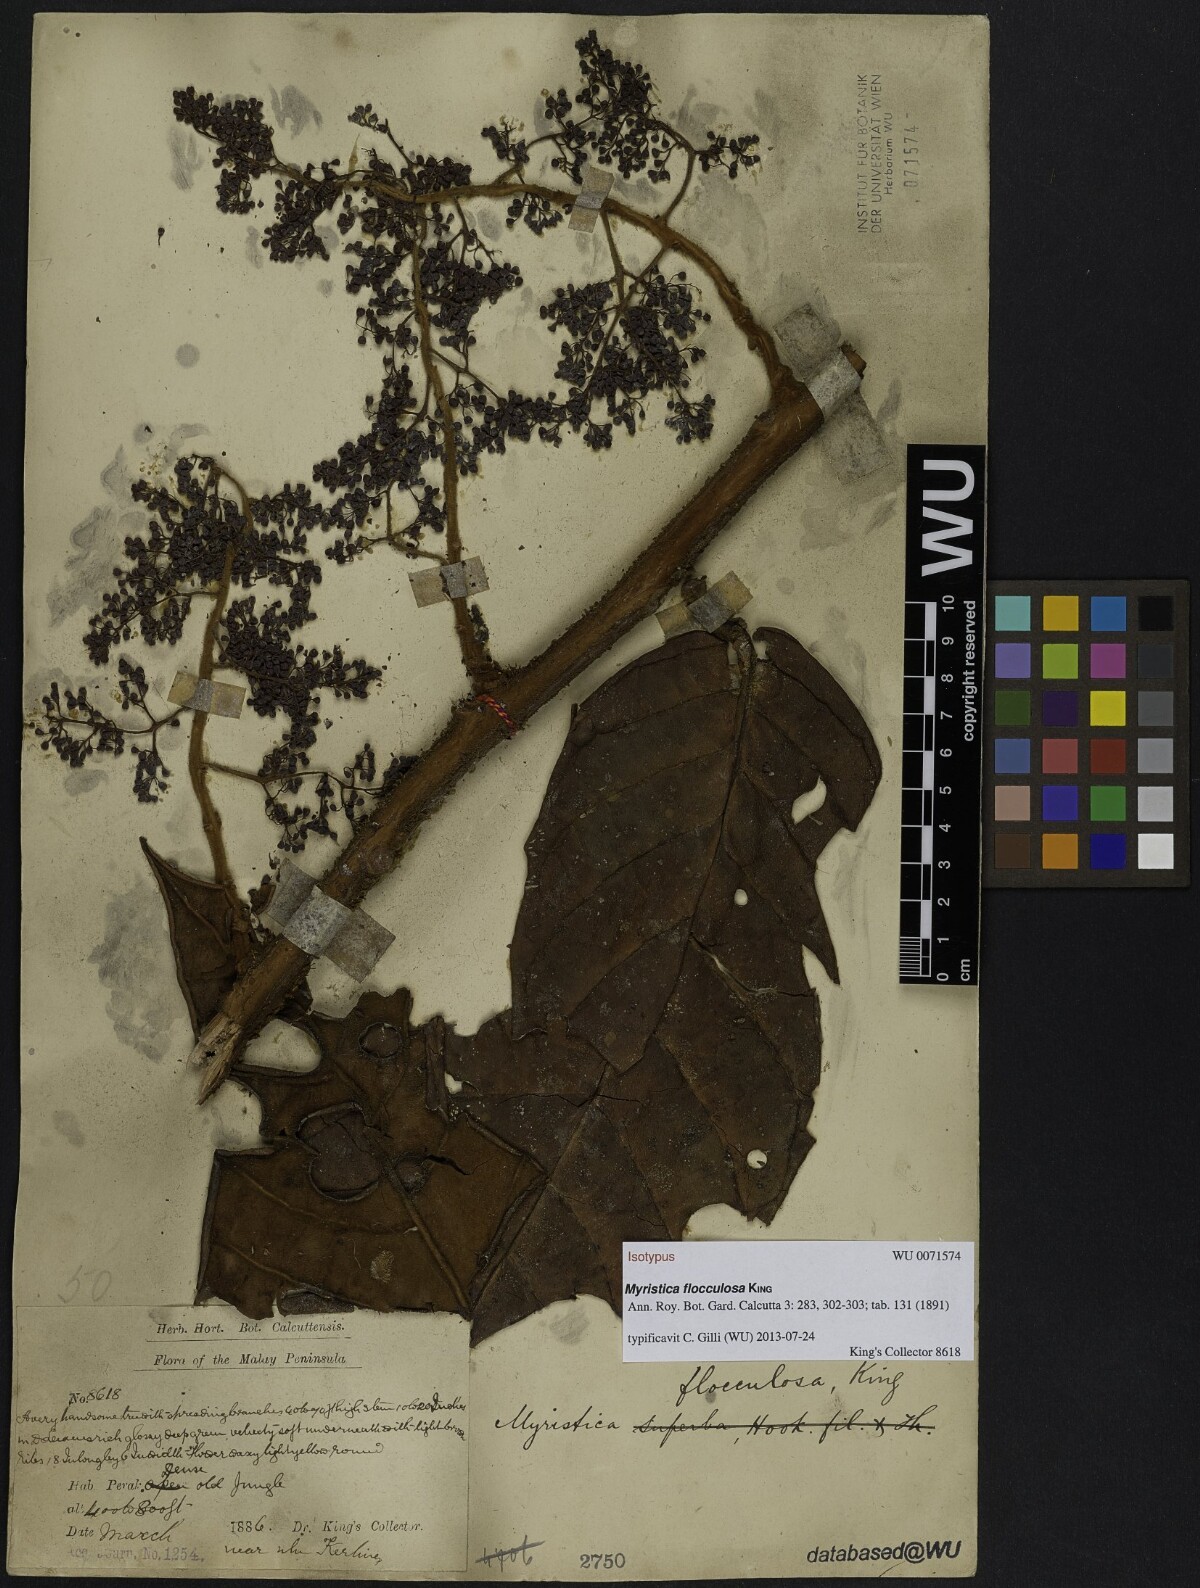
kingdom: Plantae
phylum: Tracheophyta
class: Magnoliopsida
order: Magnoliales
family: Myristicaceae
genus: Horsfieldia
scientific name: Horsfieldia flocculosa
